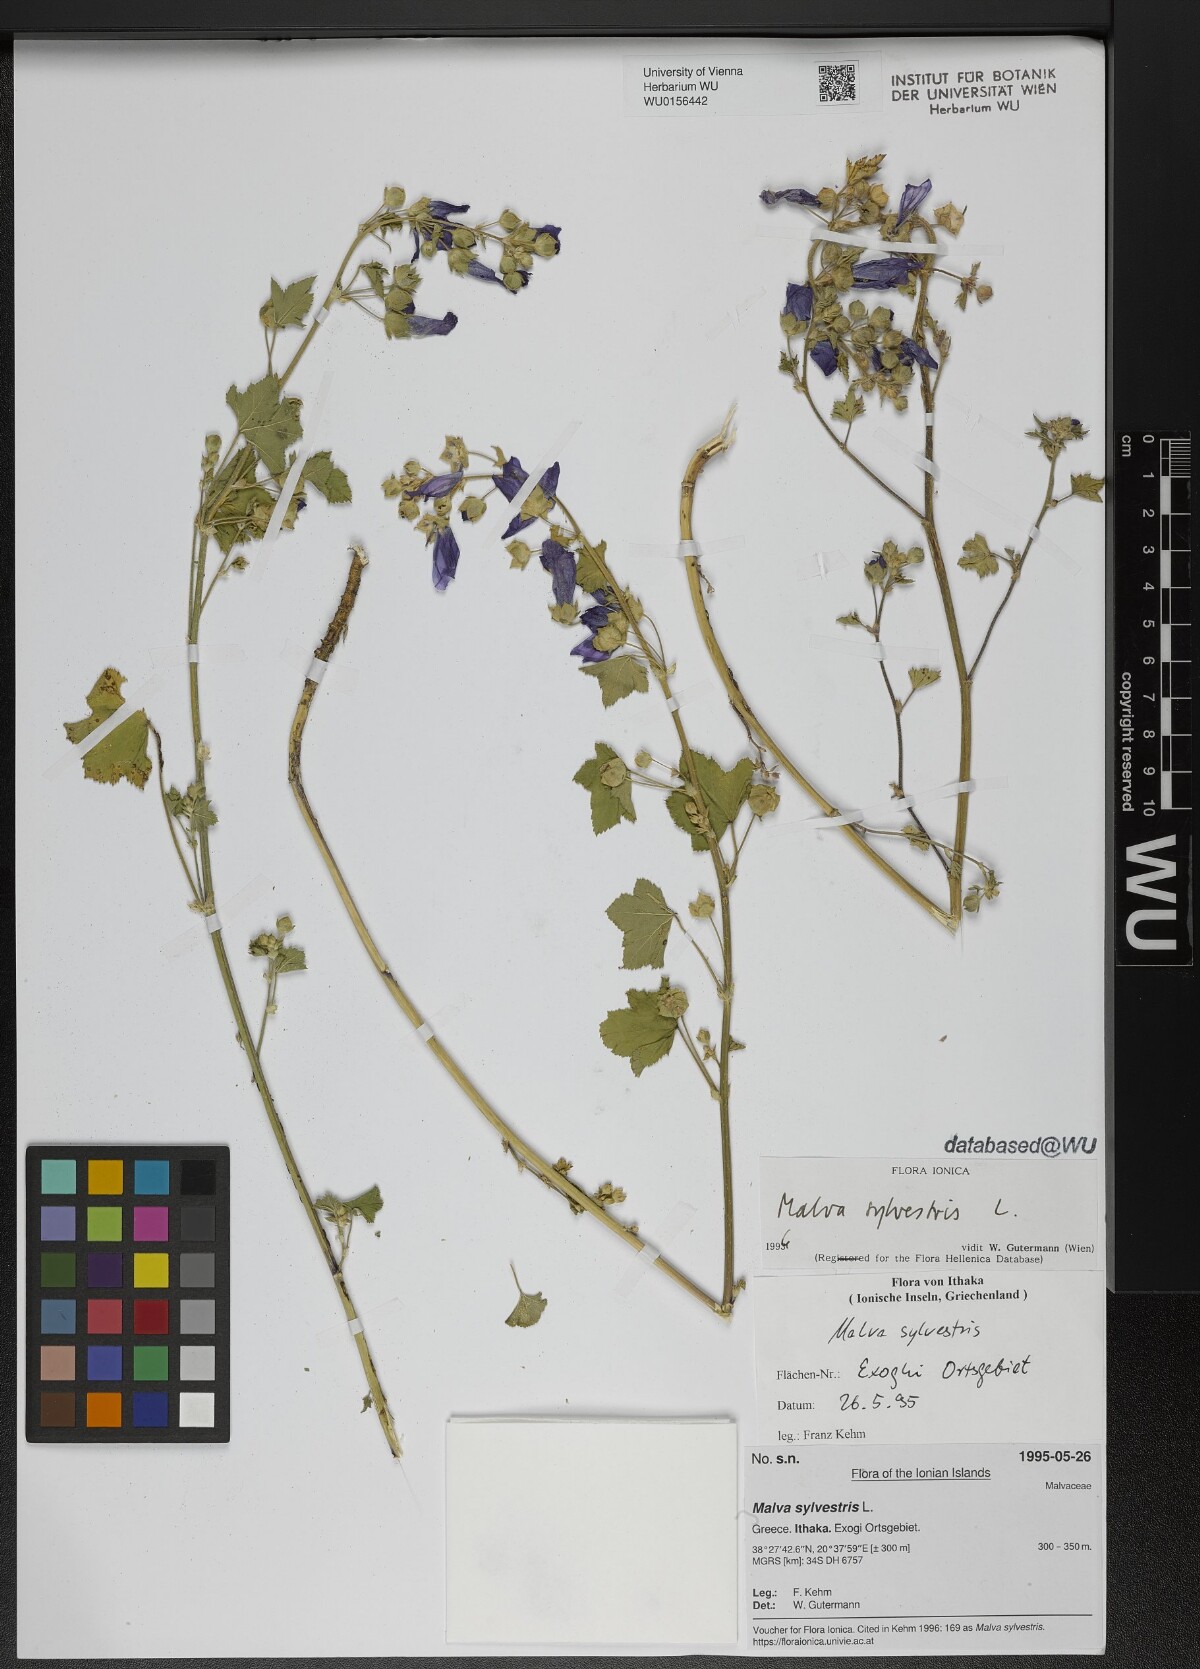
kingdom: Plantae
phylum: Tracheophyta
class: Magnoliopsida
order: Malvales
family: Malvaceae
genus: Malva
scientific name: Malva sylvestris
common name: Common mallow
